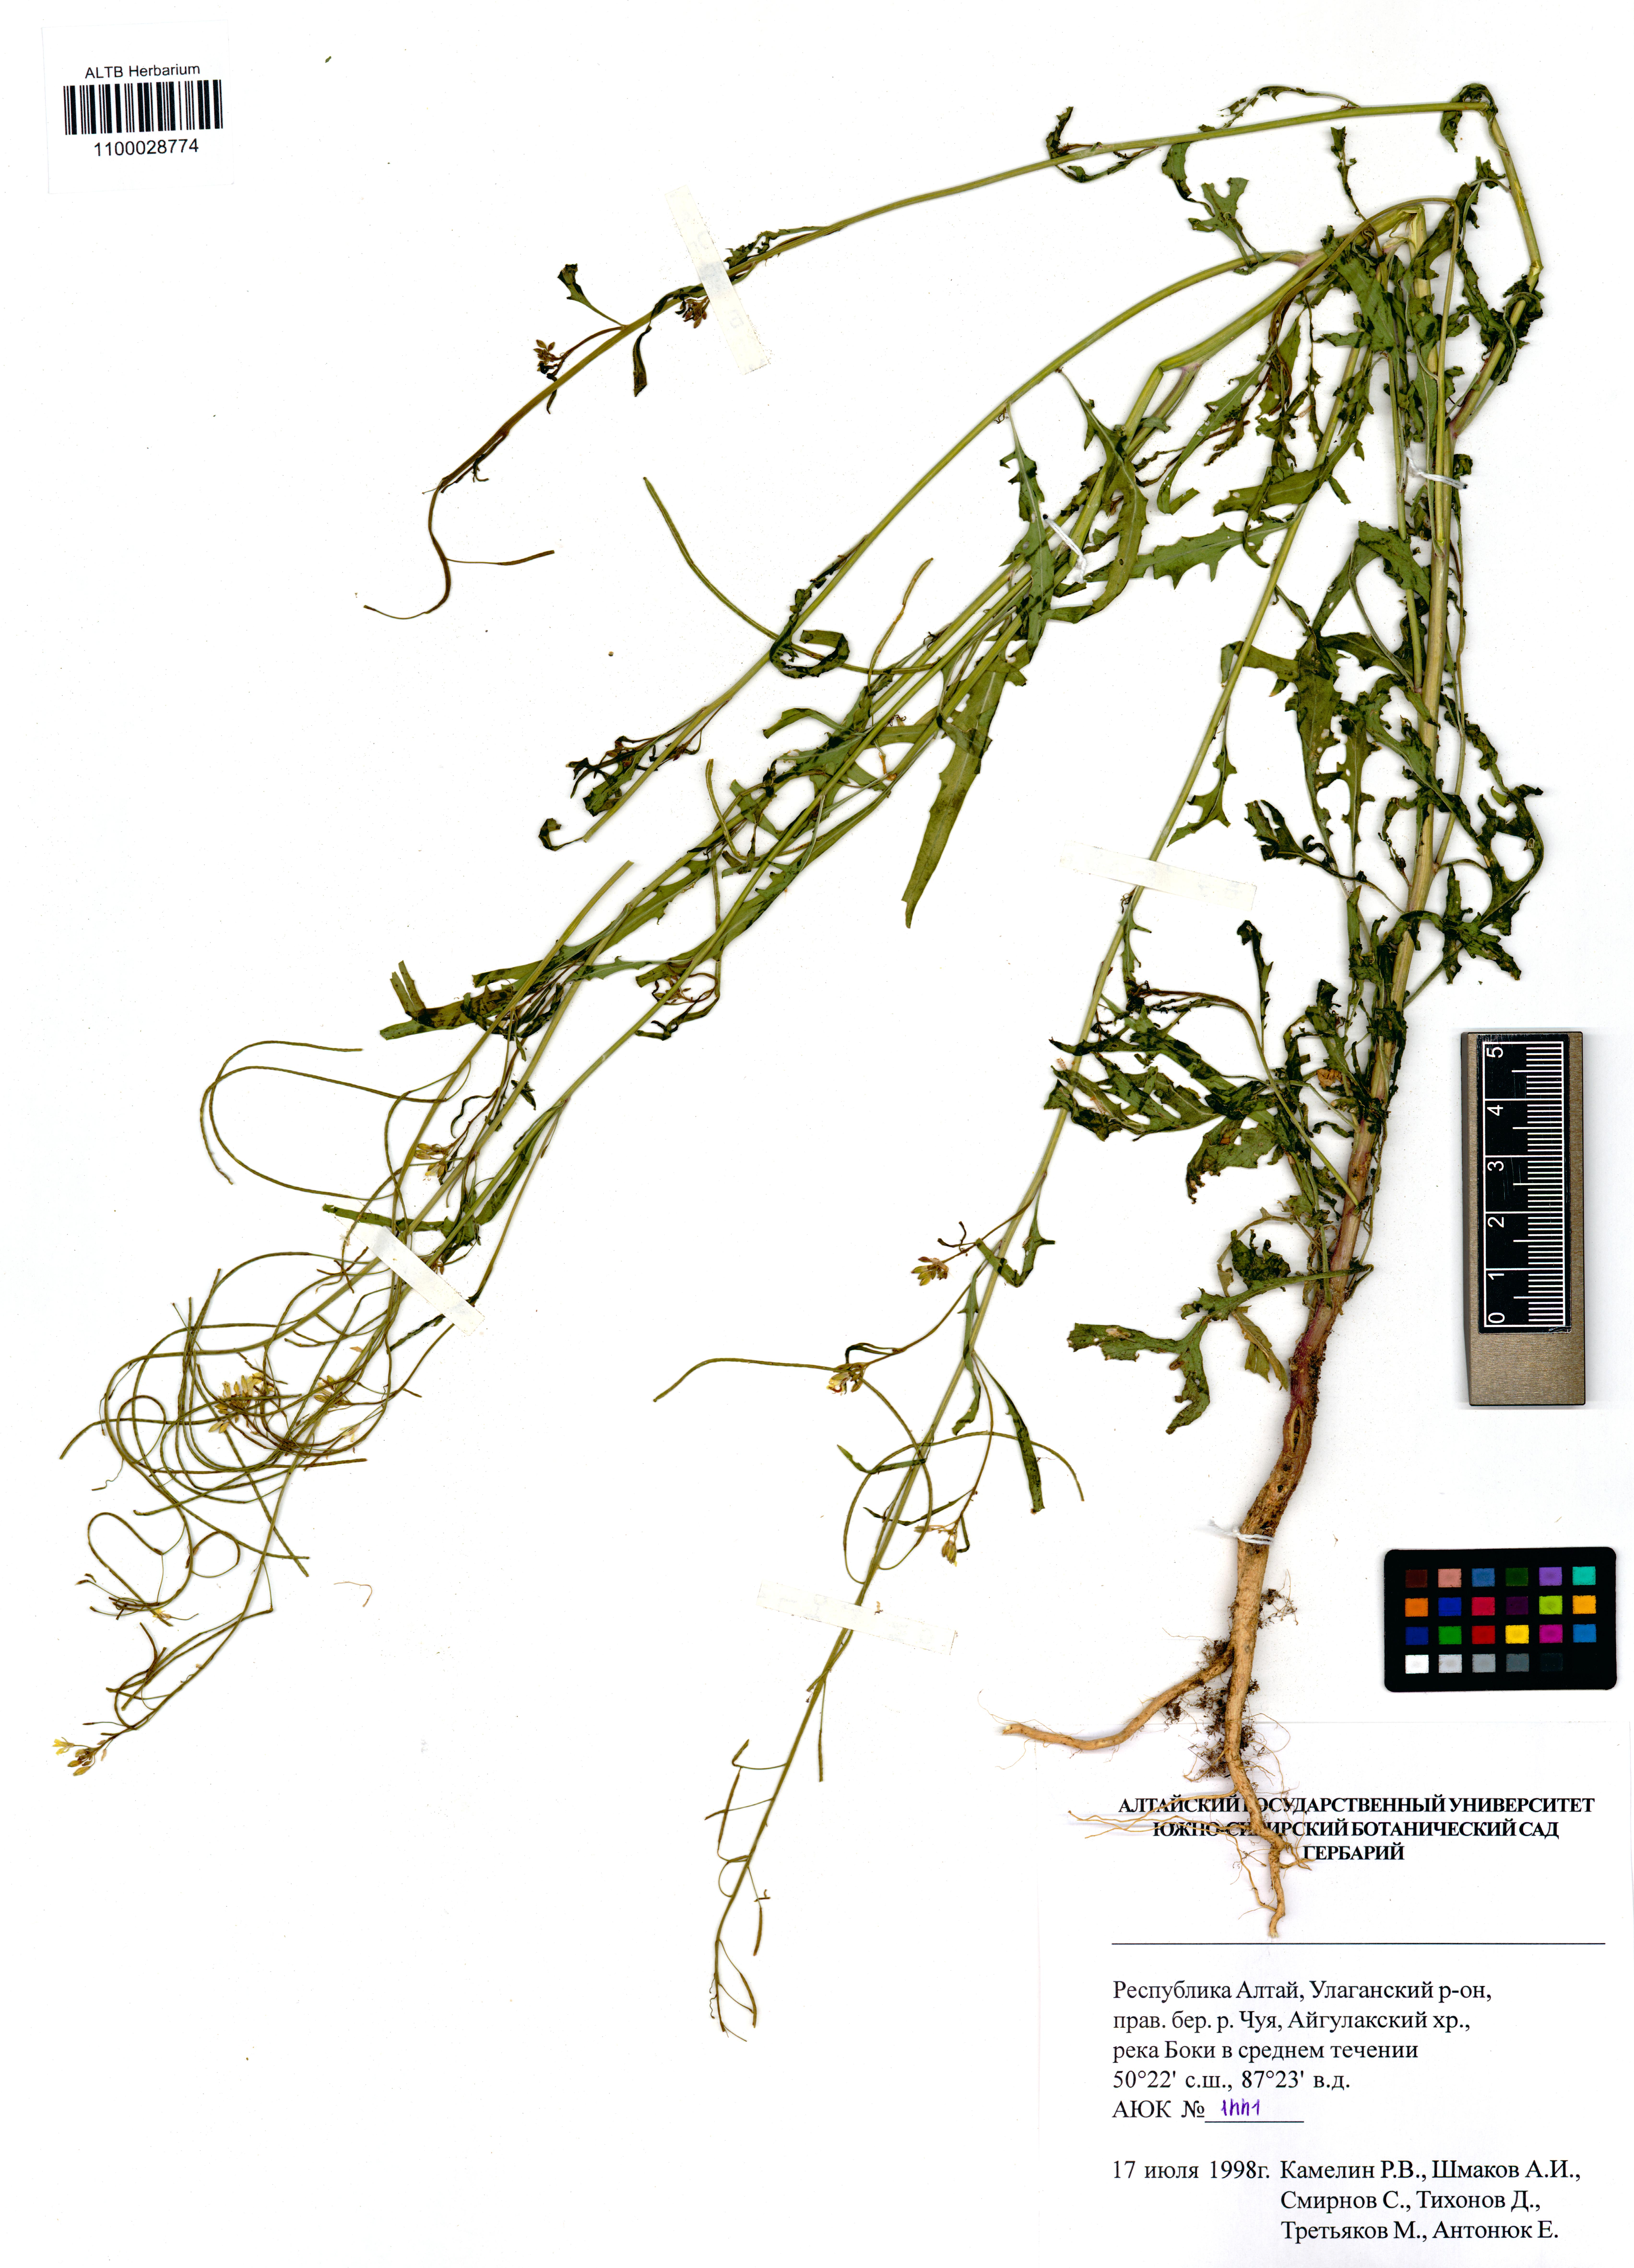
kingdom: Plantae
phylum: Tracheophyta
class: Magnoliopsida
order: Brassicales
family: Brassicaceae
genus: Sisymbrium
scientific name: Sisymbrium heteromallum
